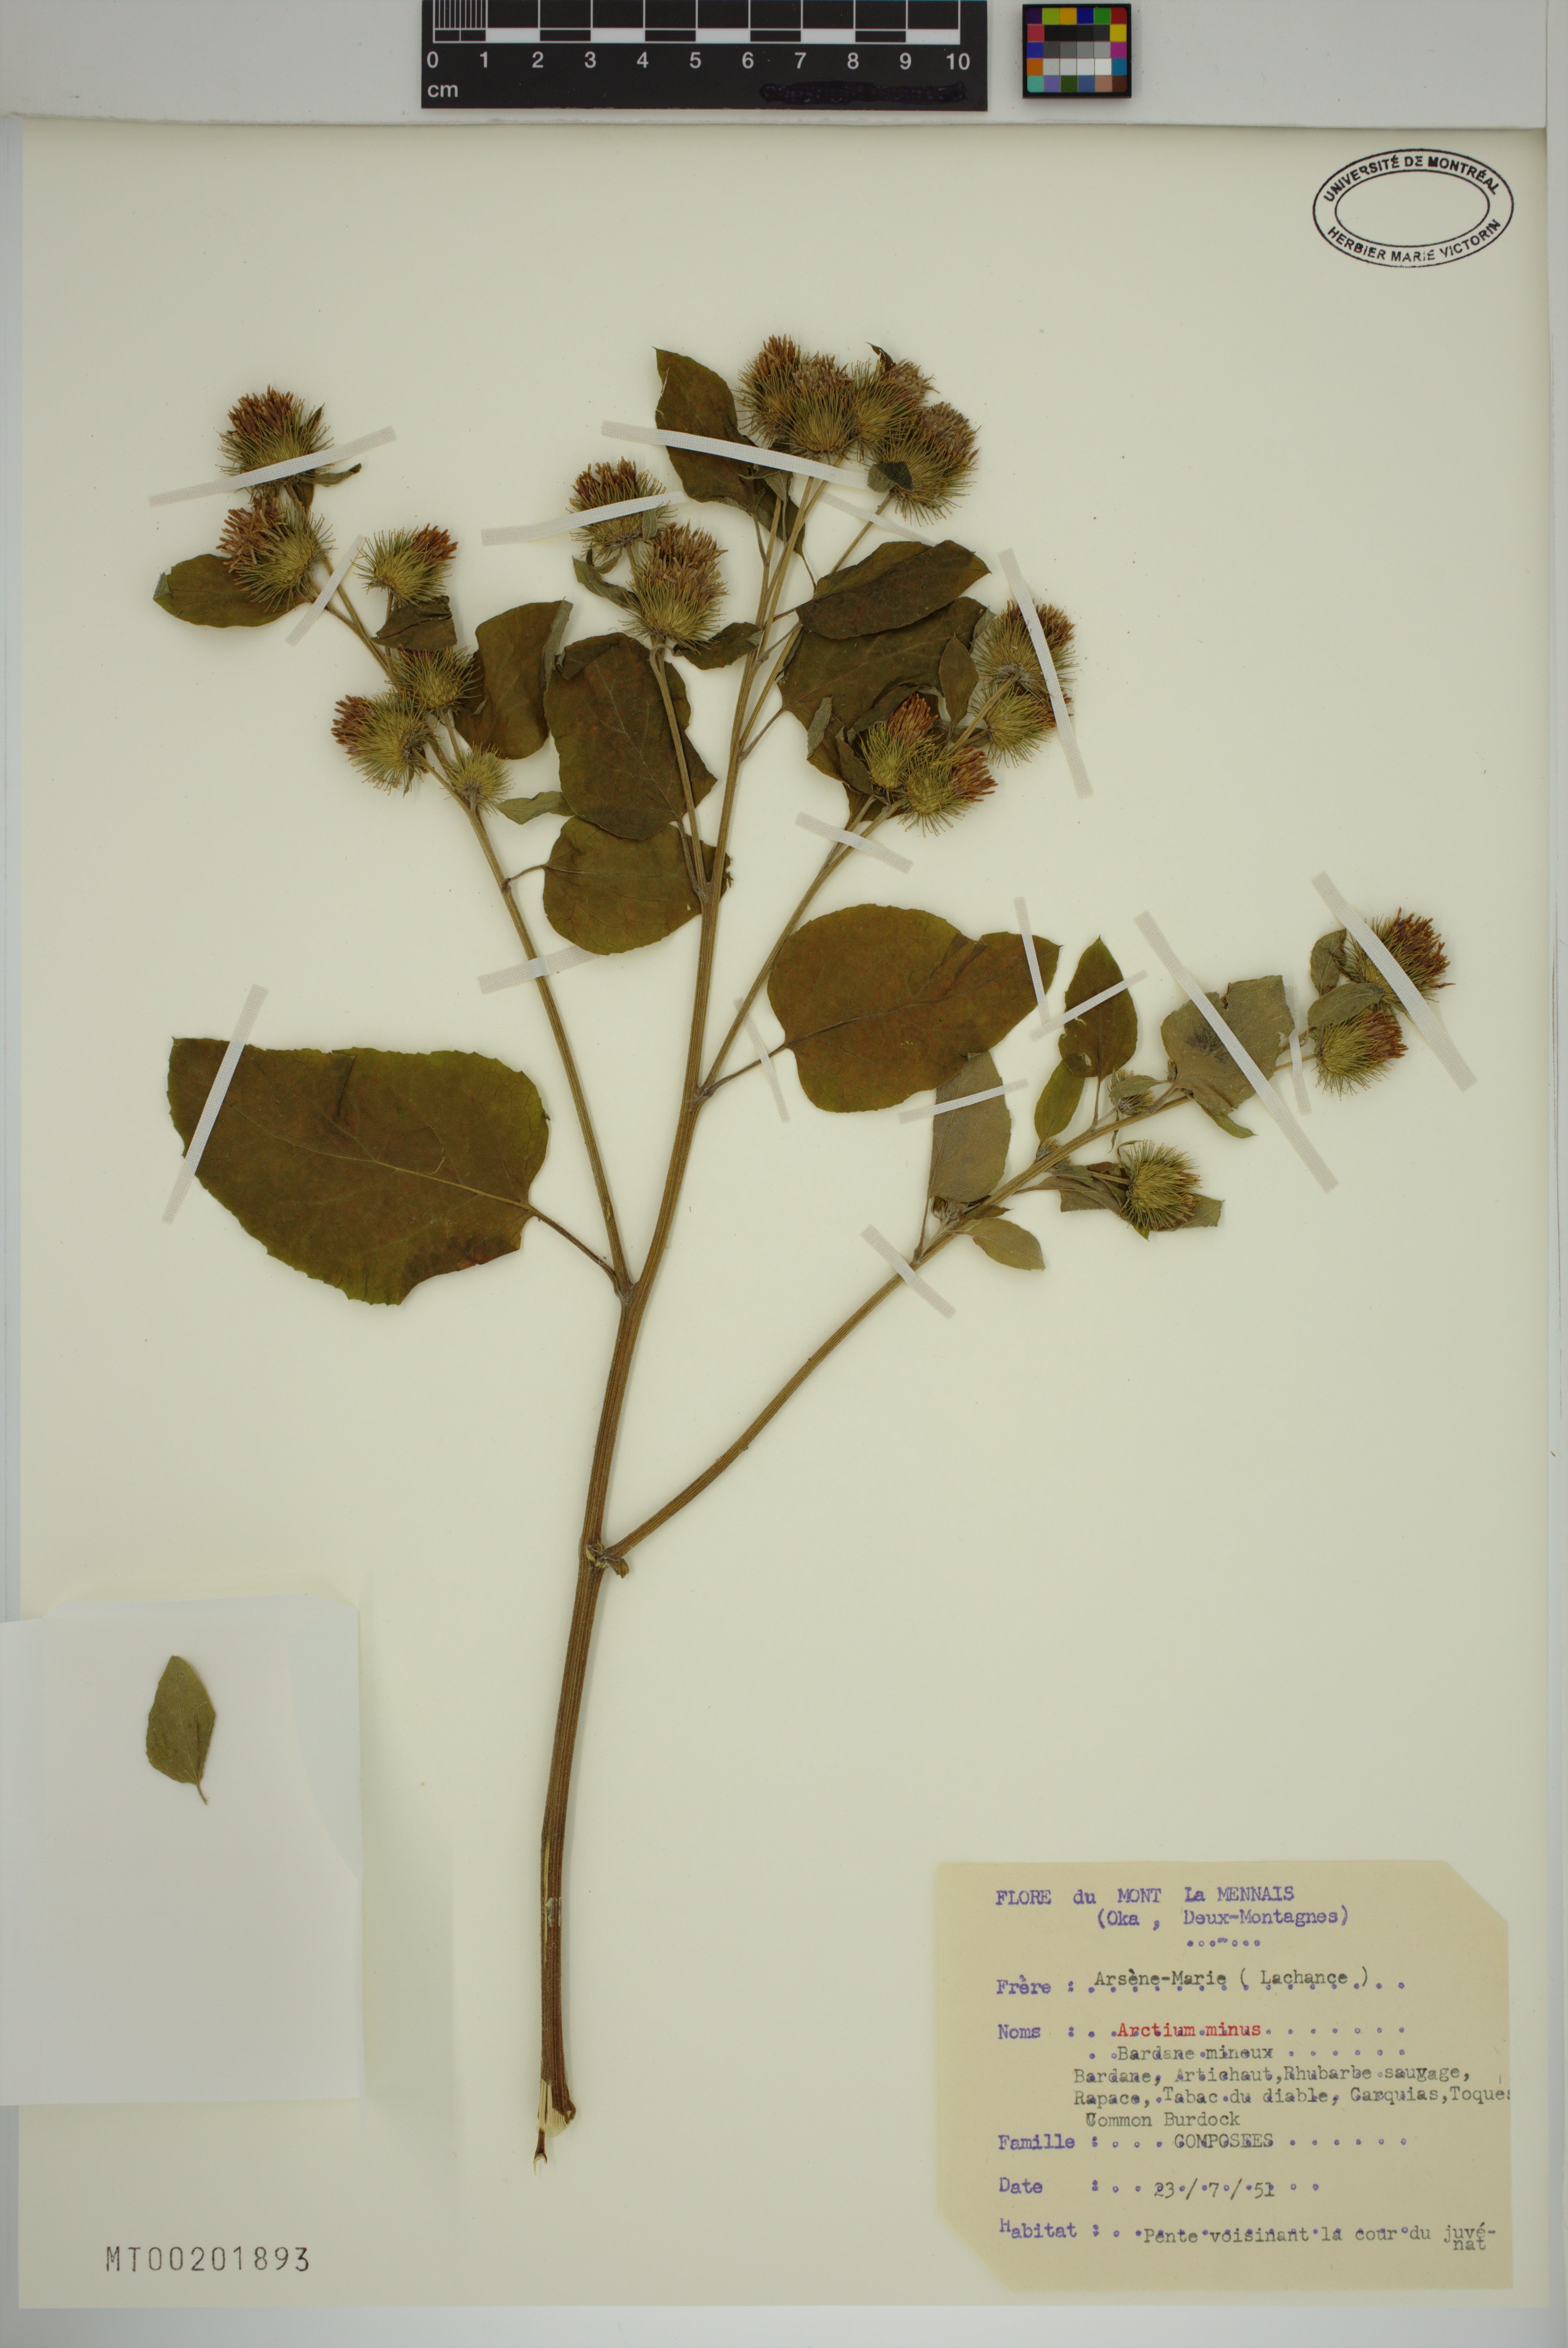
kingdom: Plantae
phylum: Tracheophyta
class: Magnoliopsida
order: Asterales
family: Asteraceae
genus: Arctium
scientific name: Arctium minus
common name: Lesser burdock
